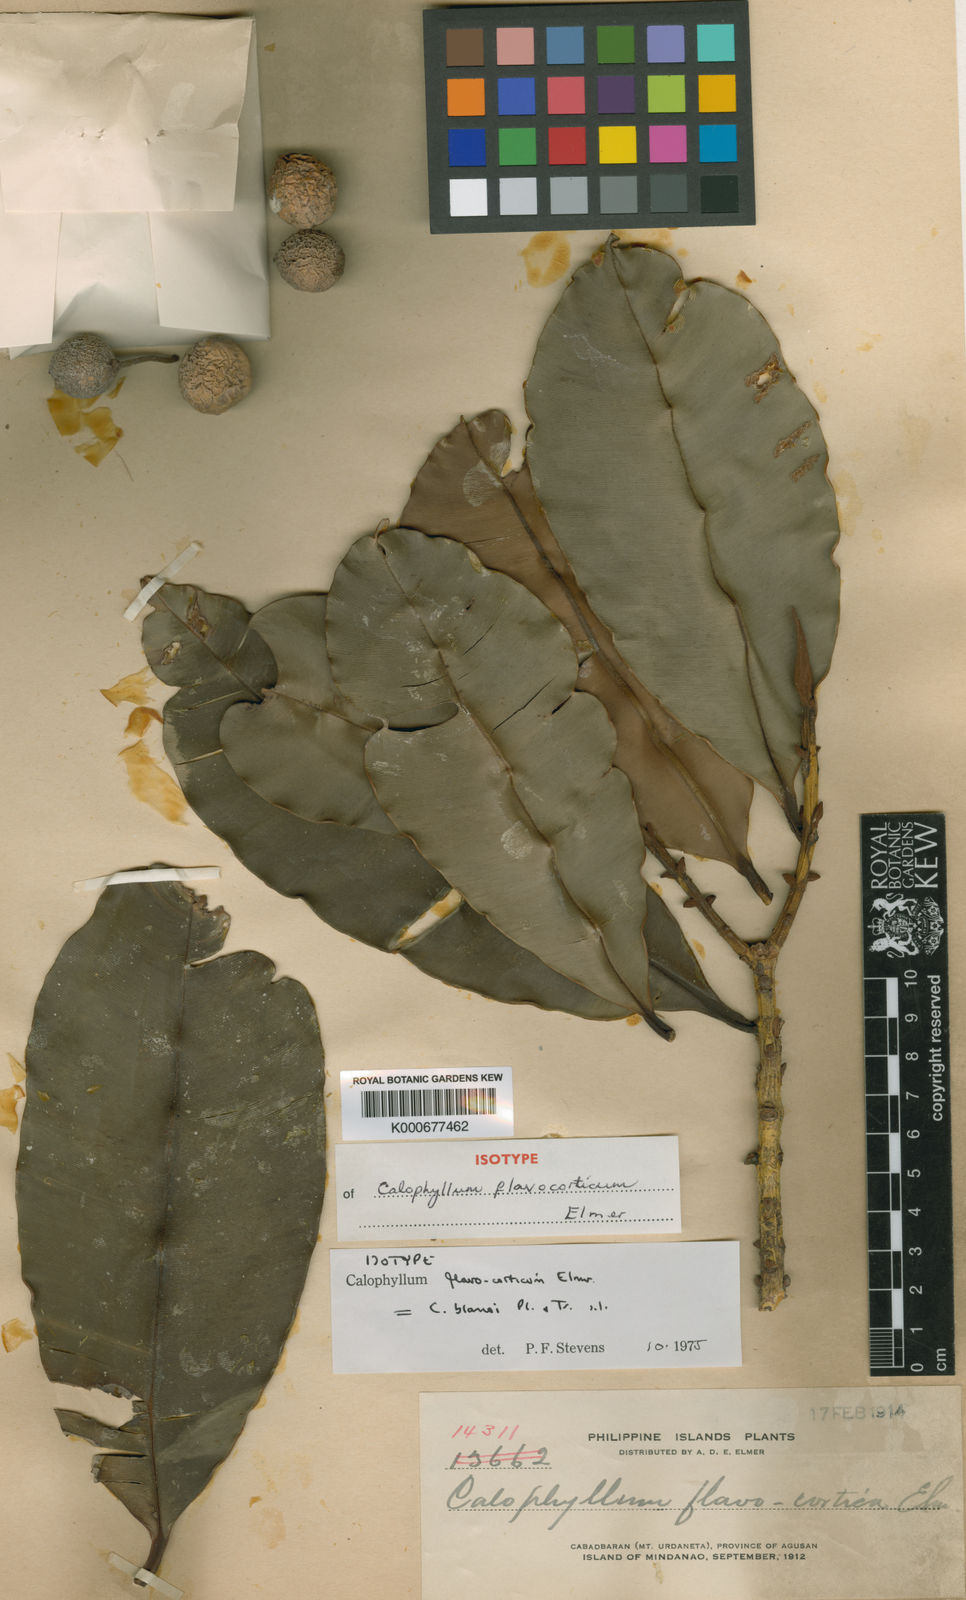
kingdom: Plantae
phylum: Tracheophyta
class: Magnoliopsida
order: Malpighiales
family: Calophyllaceae
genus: Calophyllum
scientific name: Calophyllum blancoi
